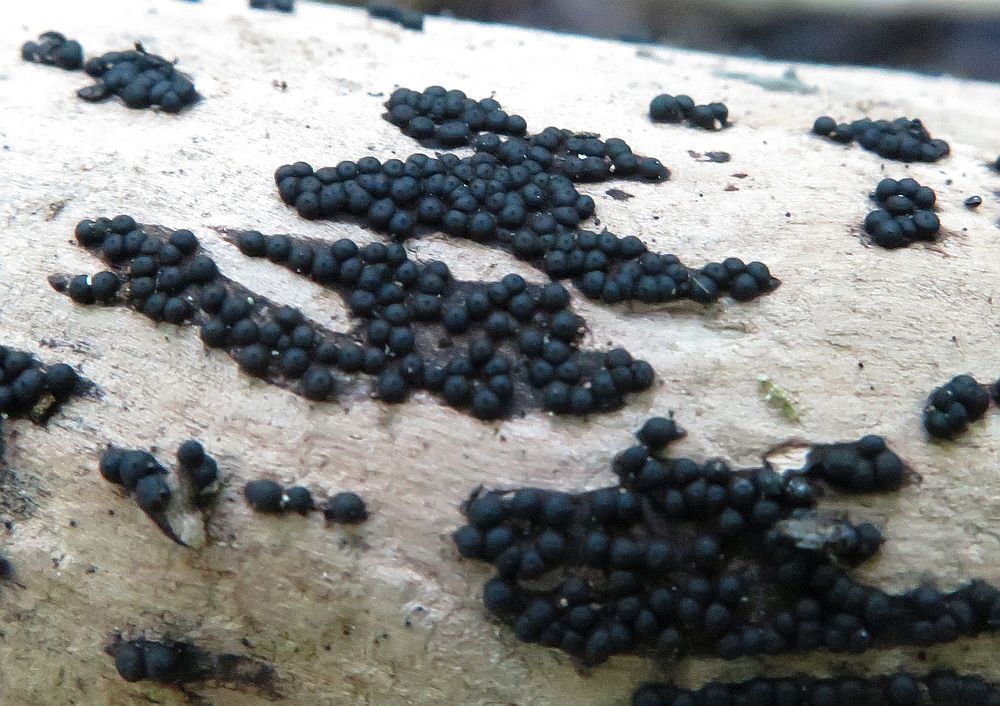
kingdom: Fungi
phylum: Ascomycota
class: Sordariomycetes
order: Xylariales
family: Xylariaceae
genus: Rosellinia
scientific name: Rosellinia marcucciana
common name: måtteløs kulkaviar
